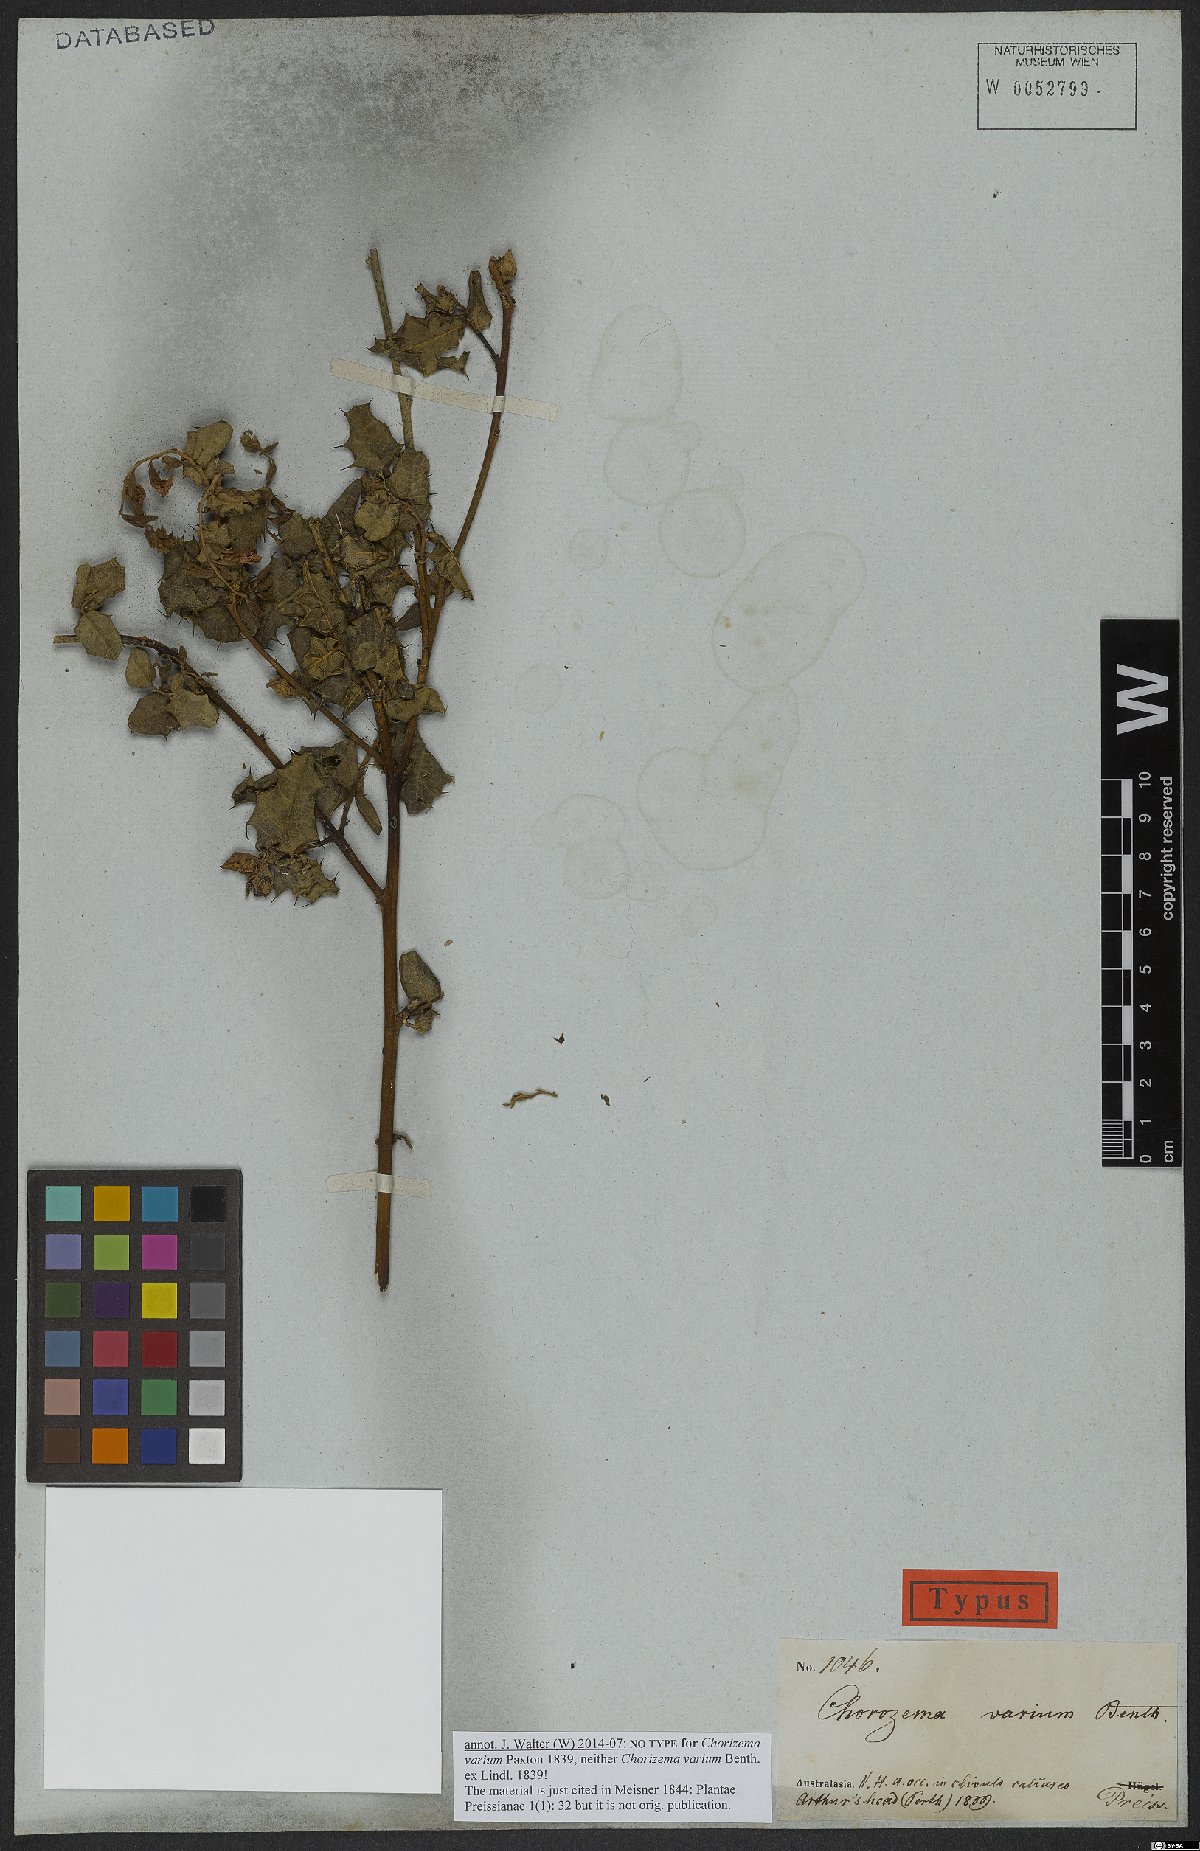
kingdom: Plantae
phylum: Tracheophyta
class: Magnoliopsida
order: Fabales
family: Fabaceae
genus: Chorizema
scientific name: Chorizema varium
